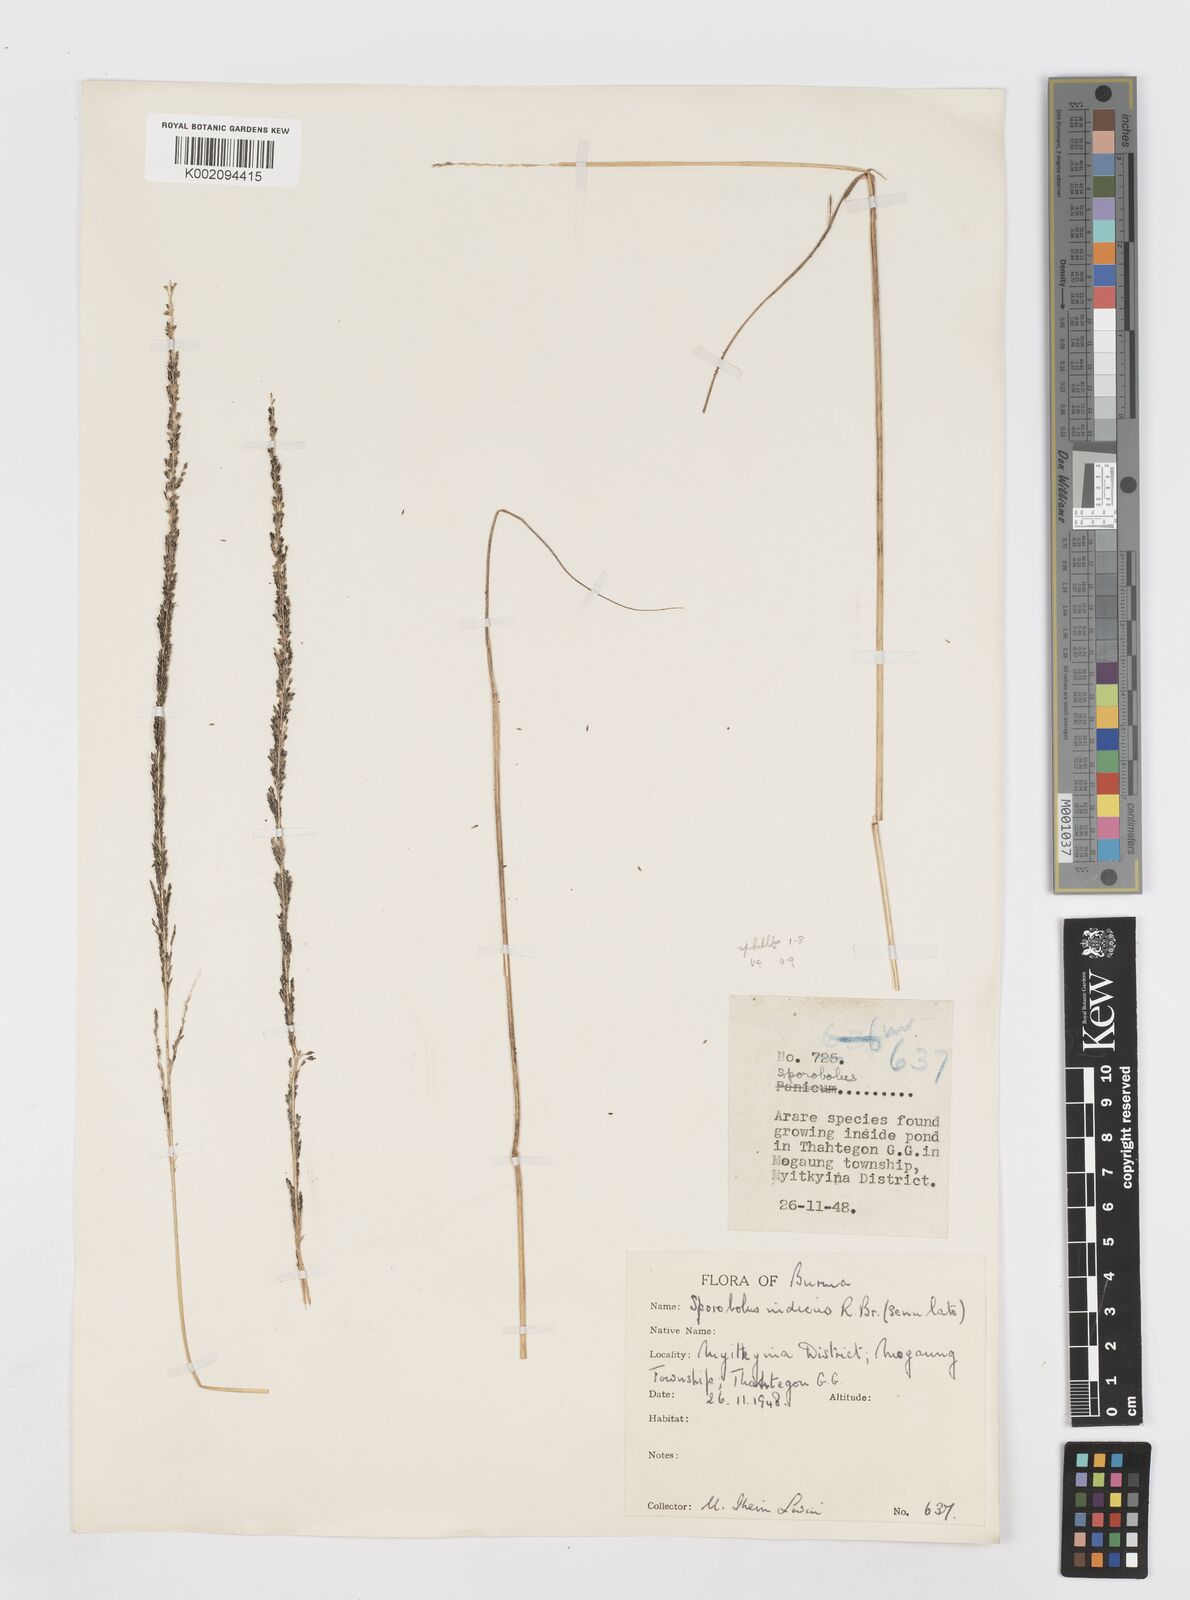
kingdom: Plantae
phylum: Tracheophyta
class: Liliopsida
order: Poales
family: Poaceae
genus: Sporobolus
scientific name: Sporobolus fertilis
